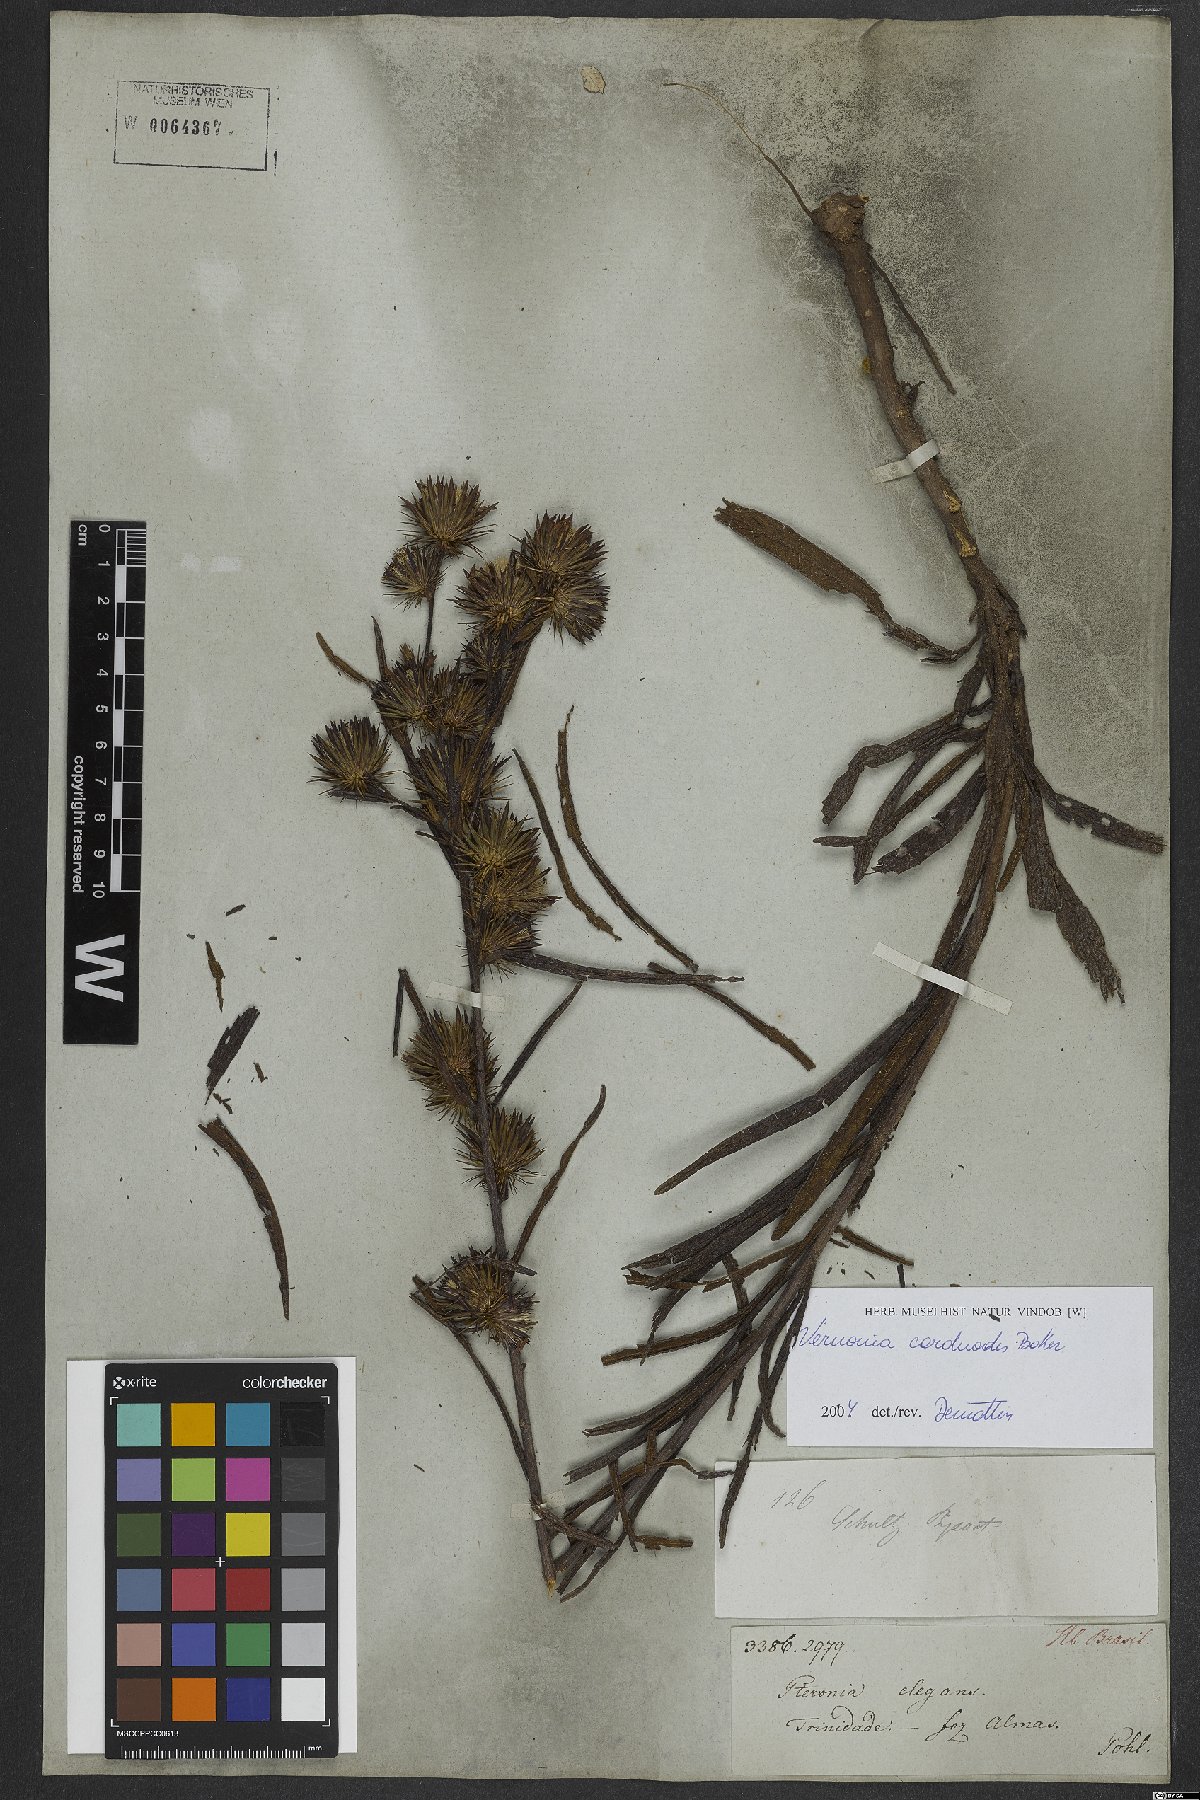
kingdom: Plantae
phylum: Tracheophyta
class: Magnoliopsida
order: Asterales
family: Asteraceae
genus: Lessingianthus
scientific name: Lessingianthus carduoides
